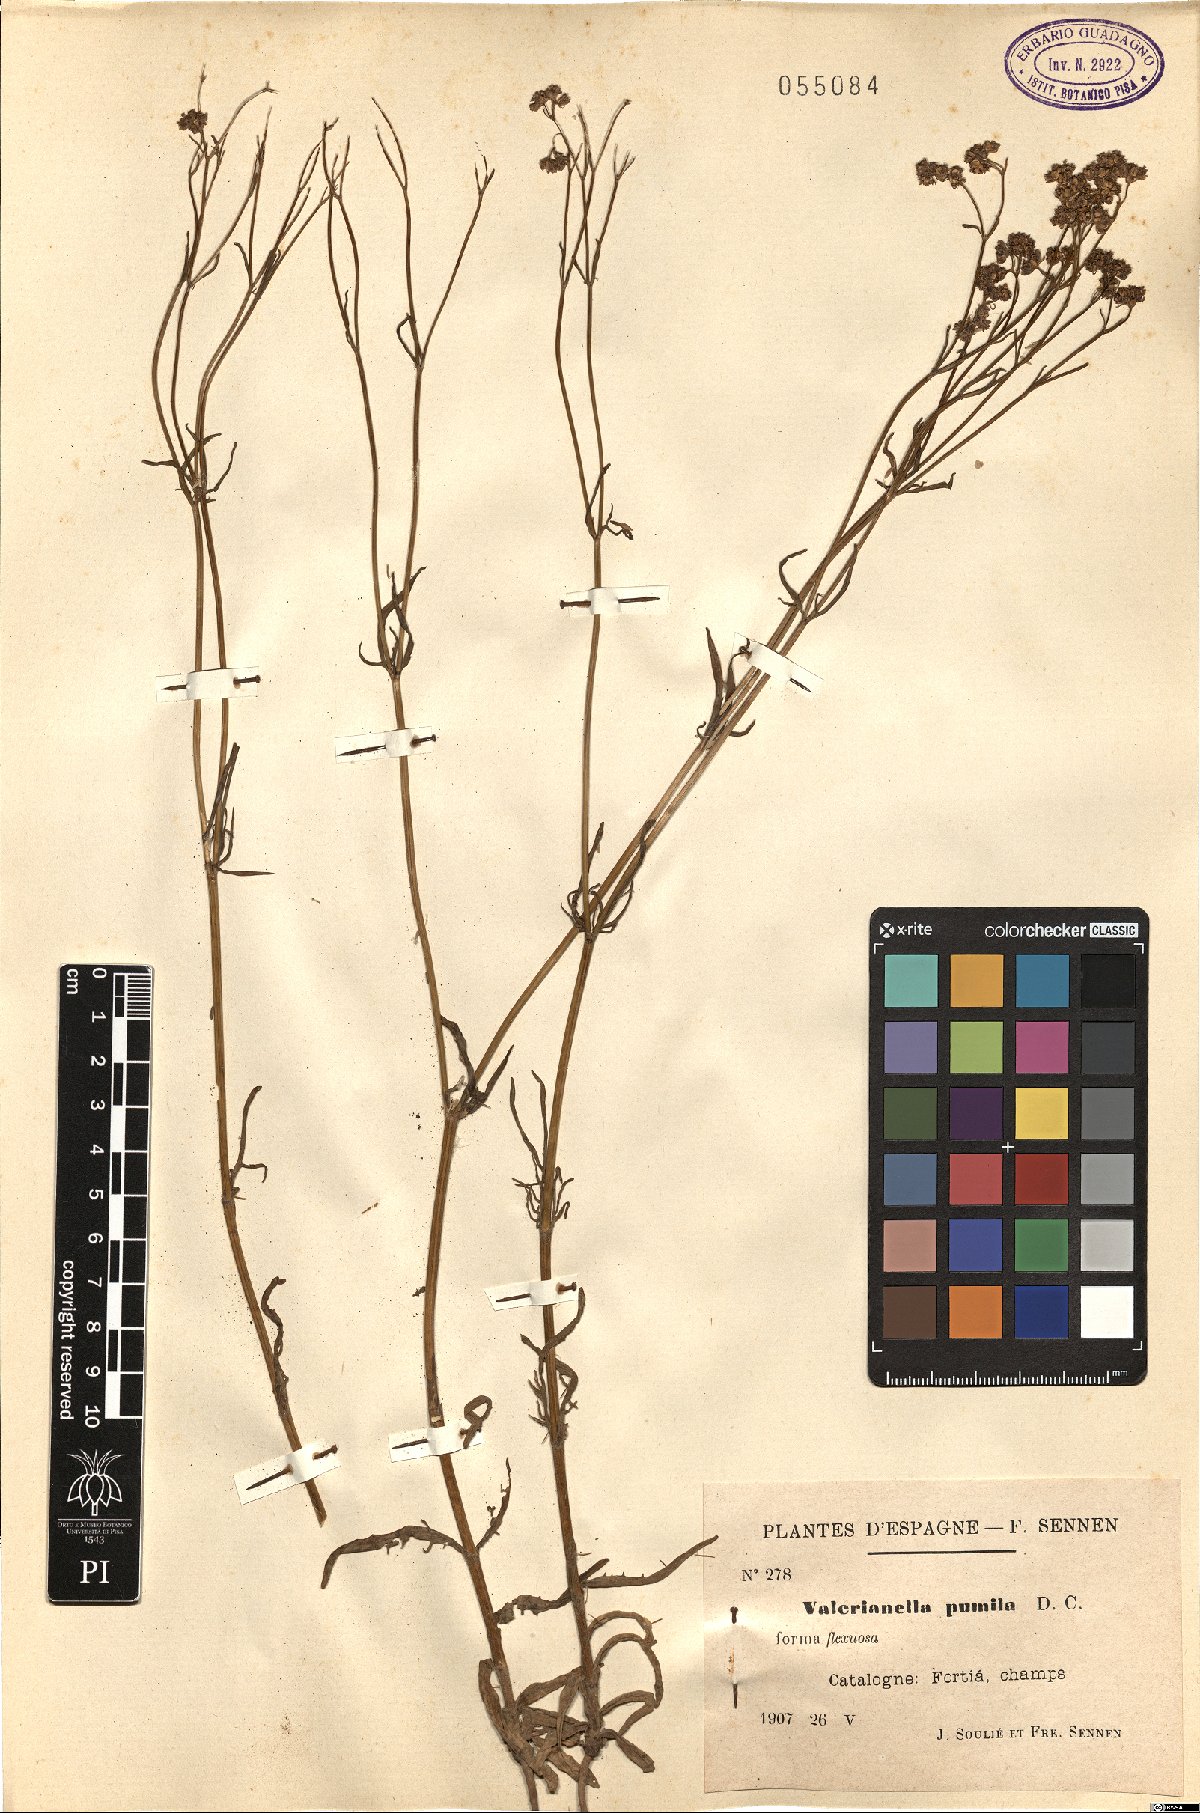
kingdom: Plantae
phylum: Tracheophyta
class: Magnoliopsida
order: Dipsacales
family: Caprifoliaceae
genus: Valerianella
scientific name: Valerianella pumila
